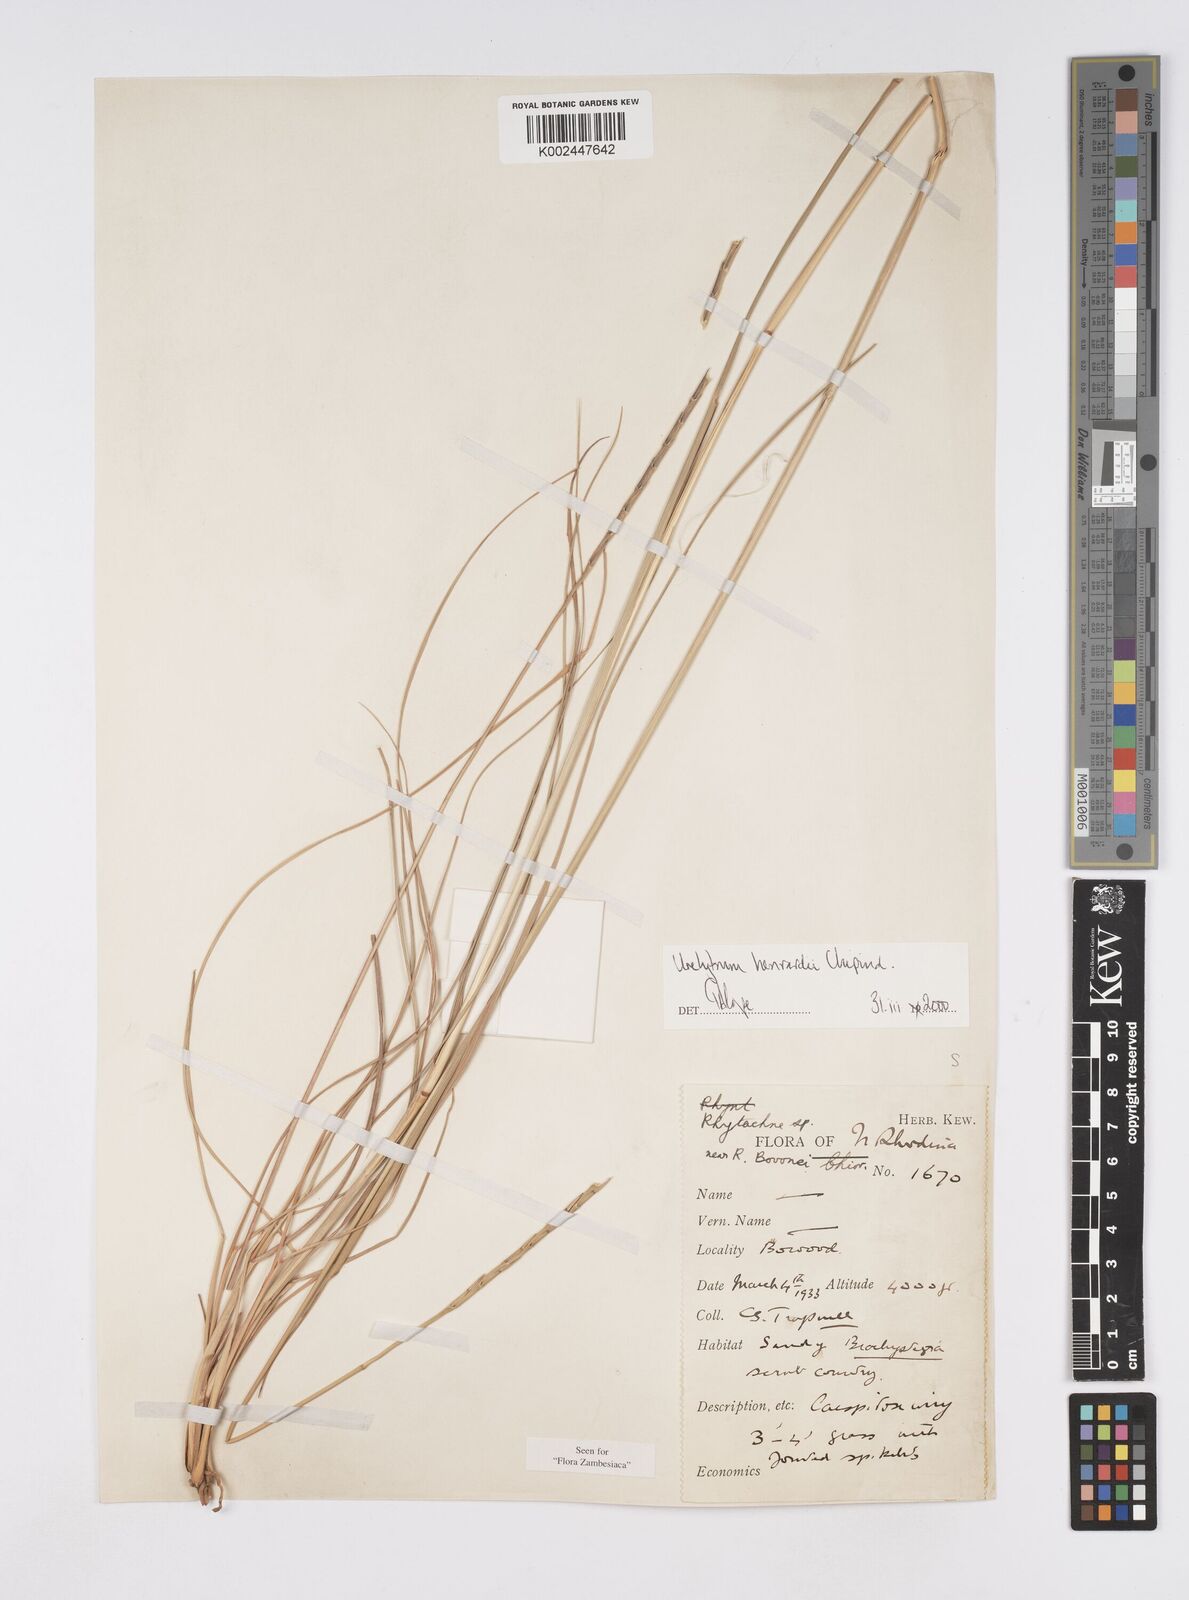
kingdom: Plantae
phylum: Tracheophyta
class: Liliopsida
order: Poales
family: Poaceae
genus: Urelytrum
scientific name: Urelytrum henrardii
